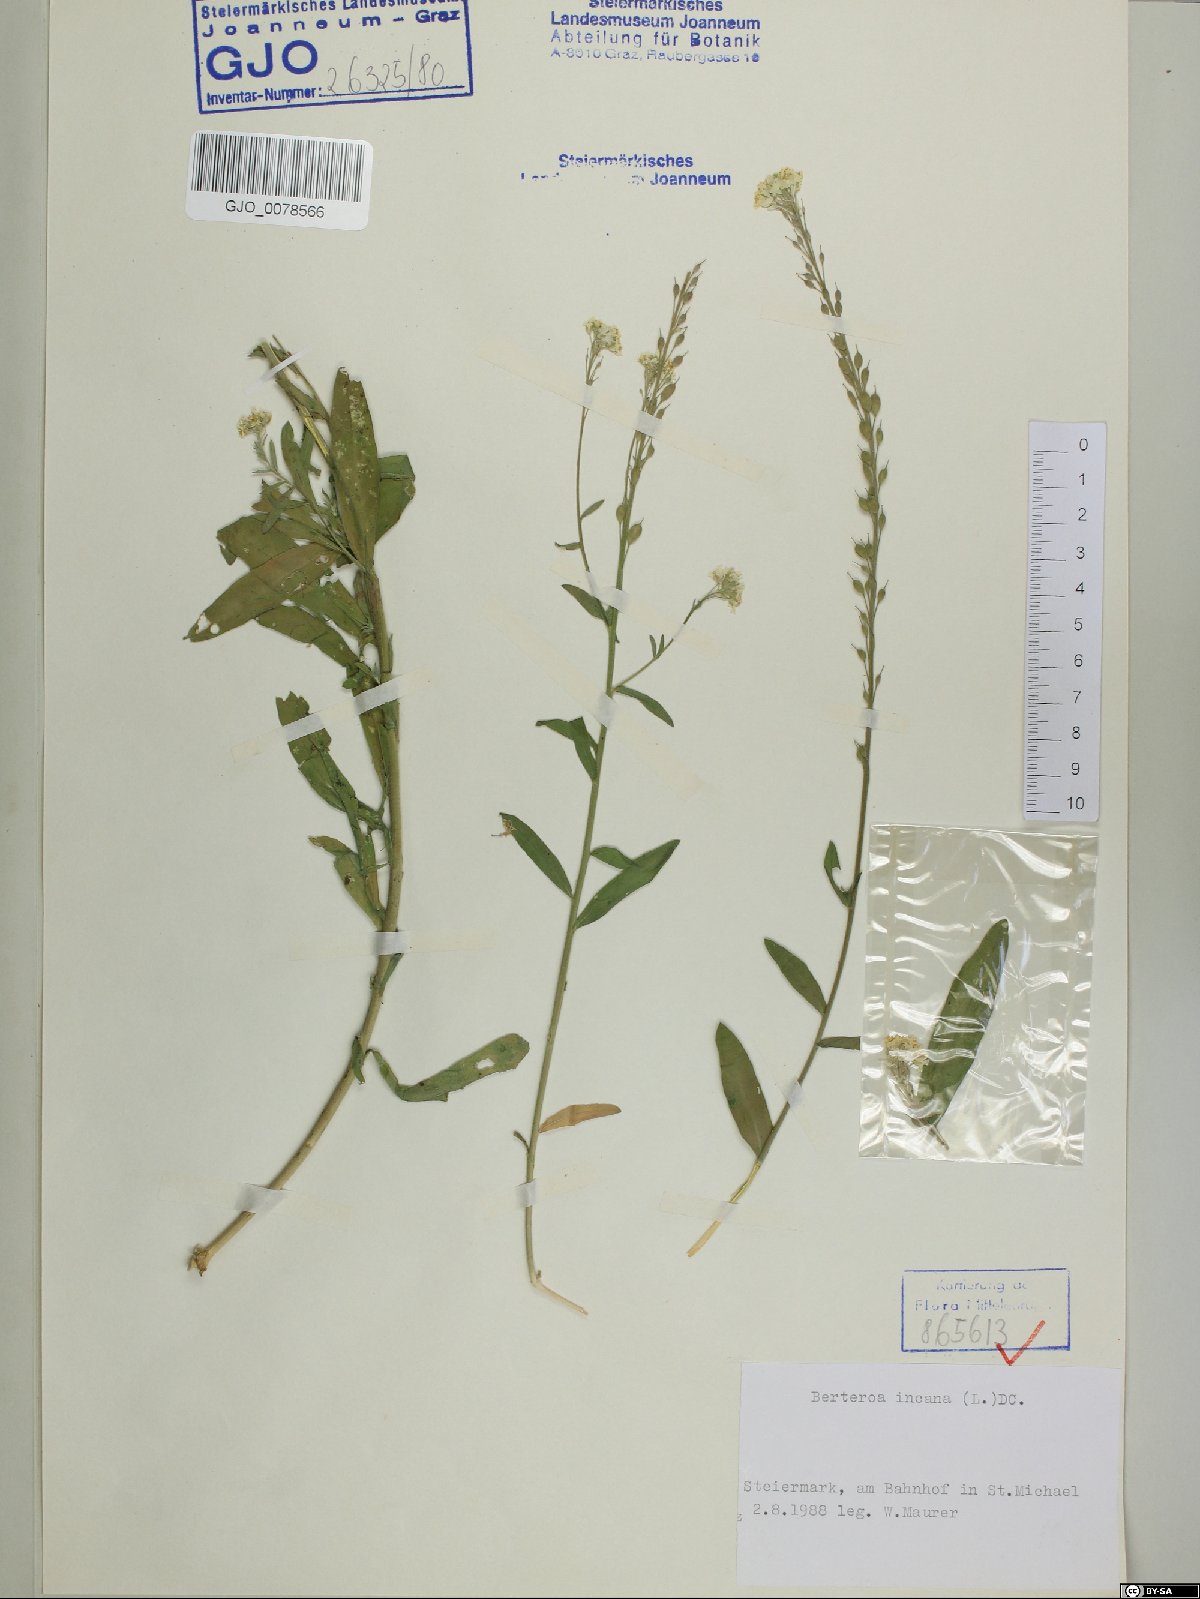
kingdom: Plantae
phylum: Tracheophyta
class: Magnoliopsida
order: Brassicales
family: Brassicaceae
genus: Berteroa
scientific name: Berteroa incana
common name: Hoary alison
